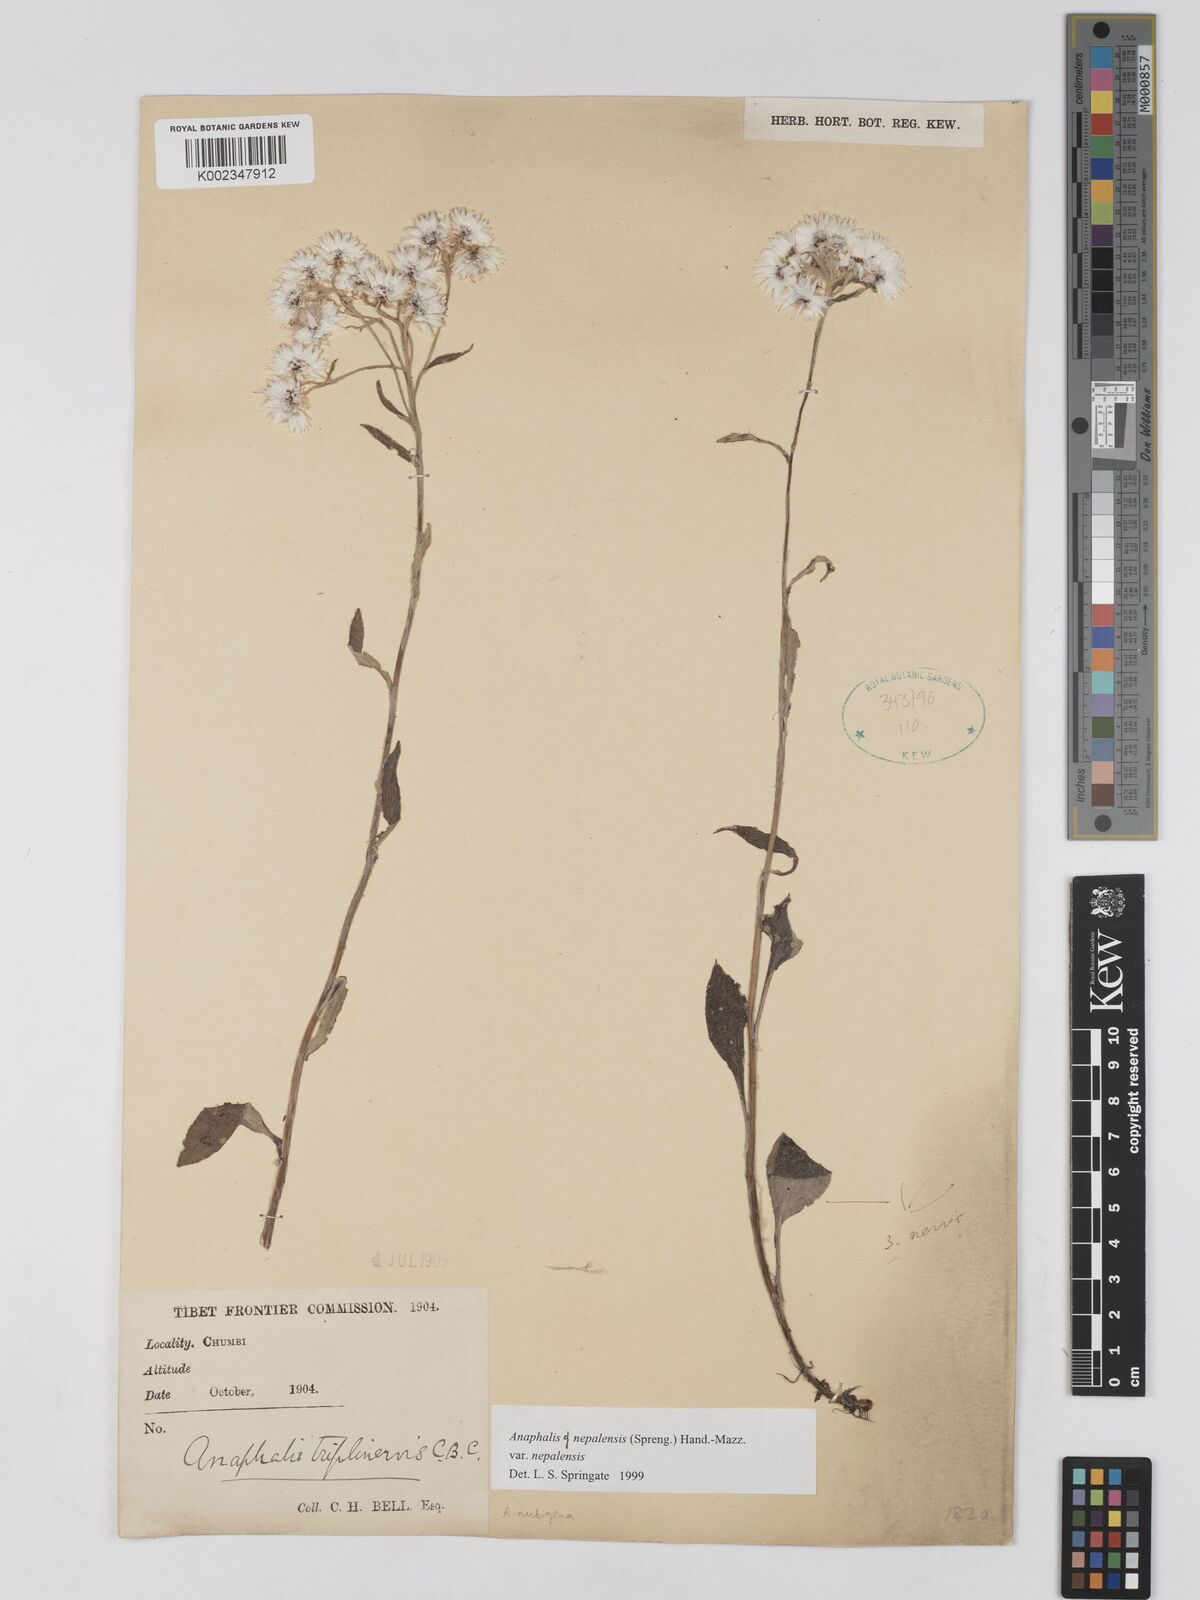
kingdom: Plantae
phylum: Tracheophyta
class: Magnoliopsida
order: Asterales
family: Asteraceae
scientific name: Asteraceae
